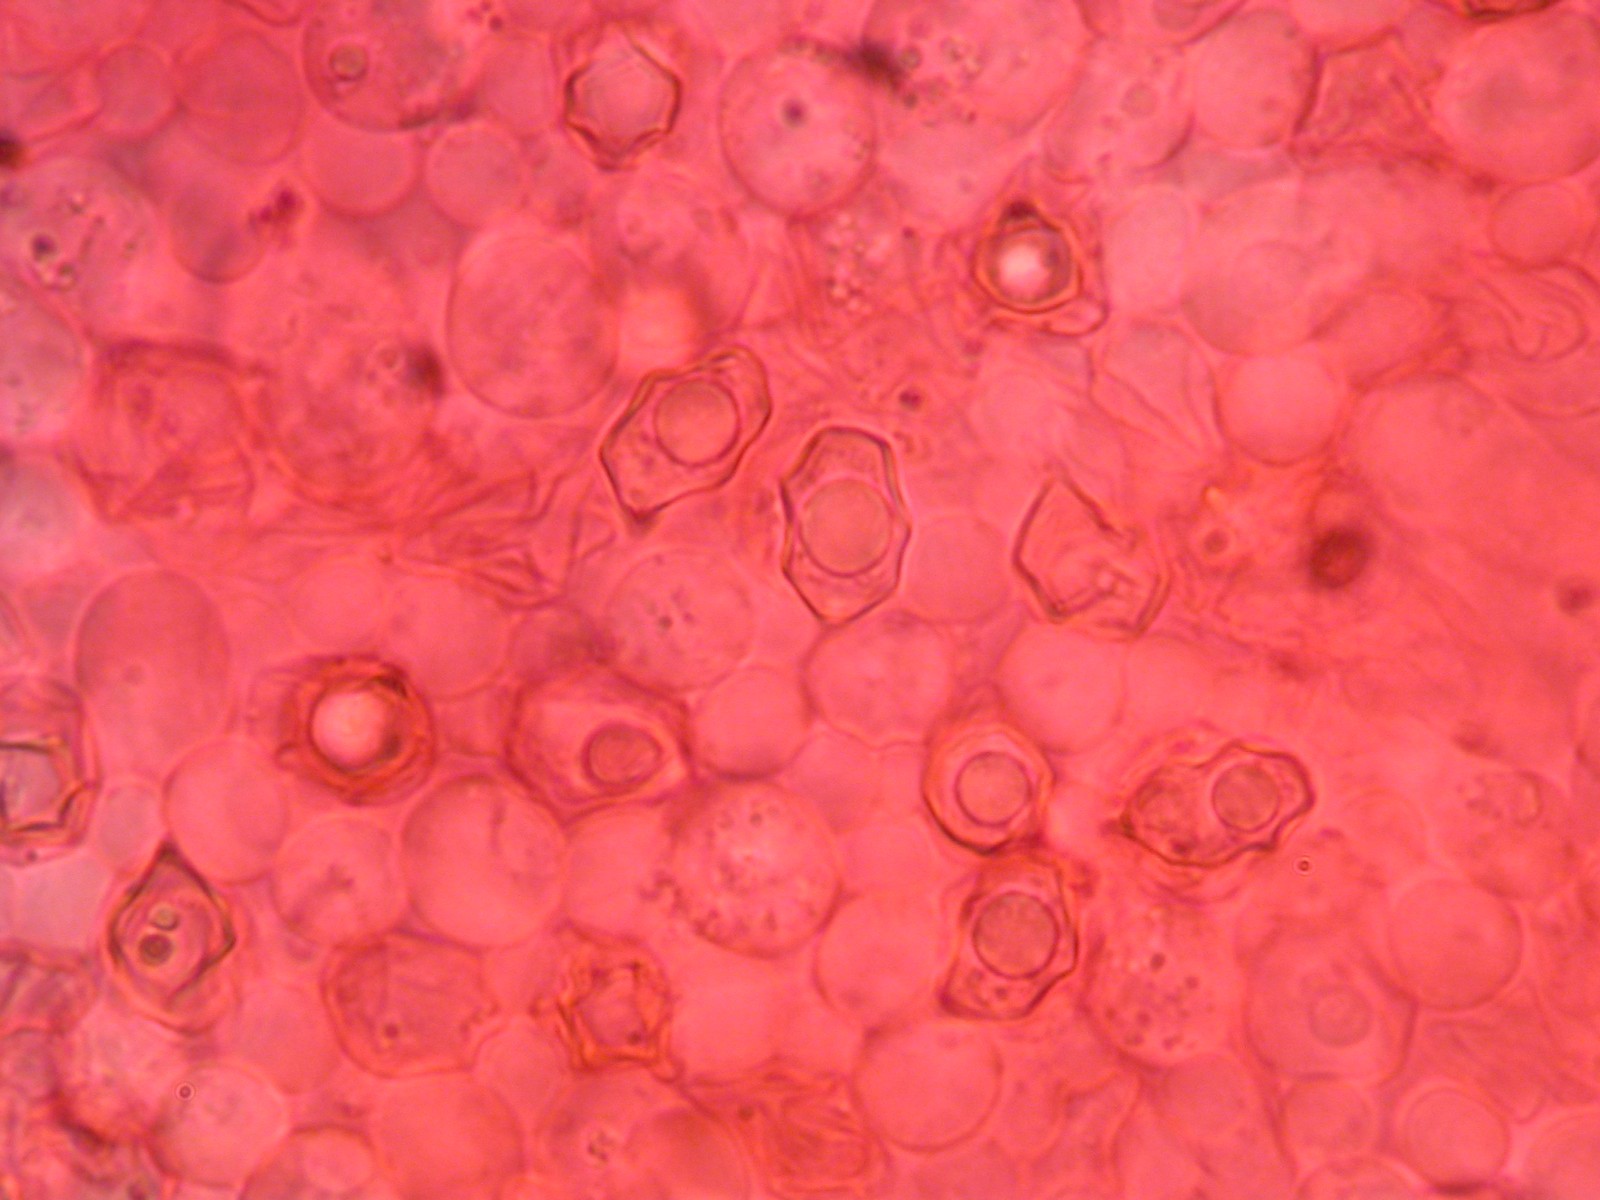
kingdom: Fungi
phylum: Basidiomycota
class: Agaricomycetes
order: Agaricales
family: Entolomataceae
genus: Entoloma
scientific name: Entoloma
